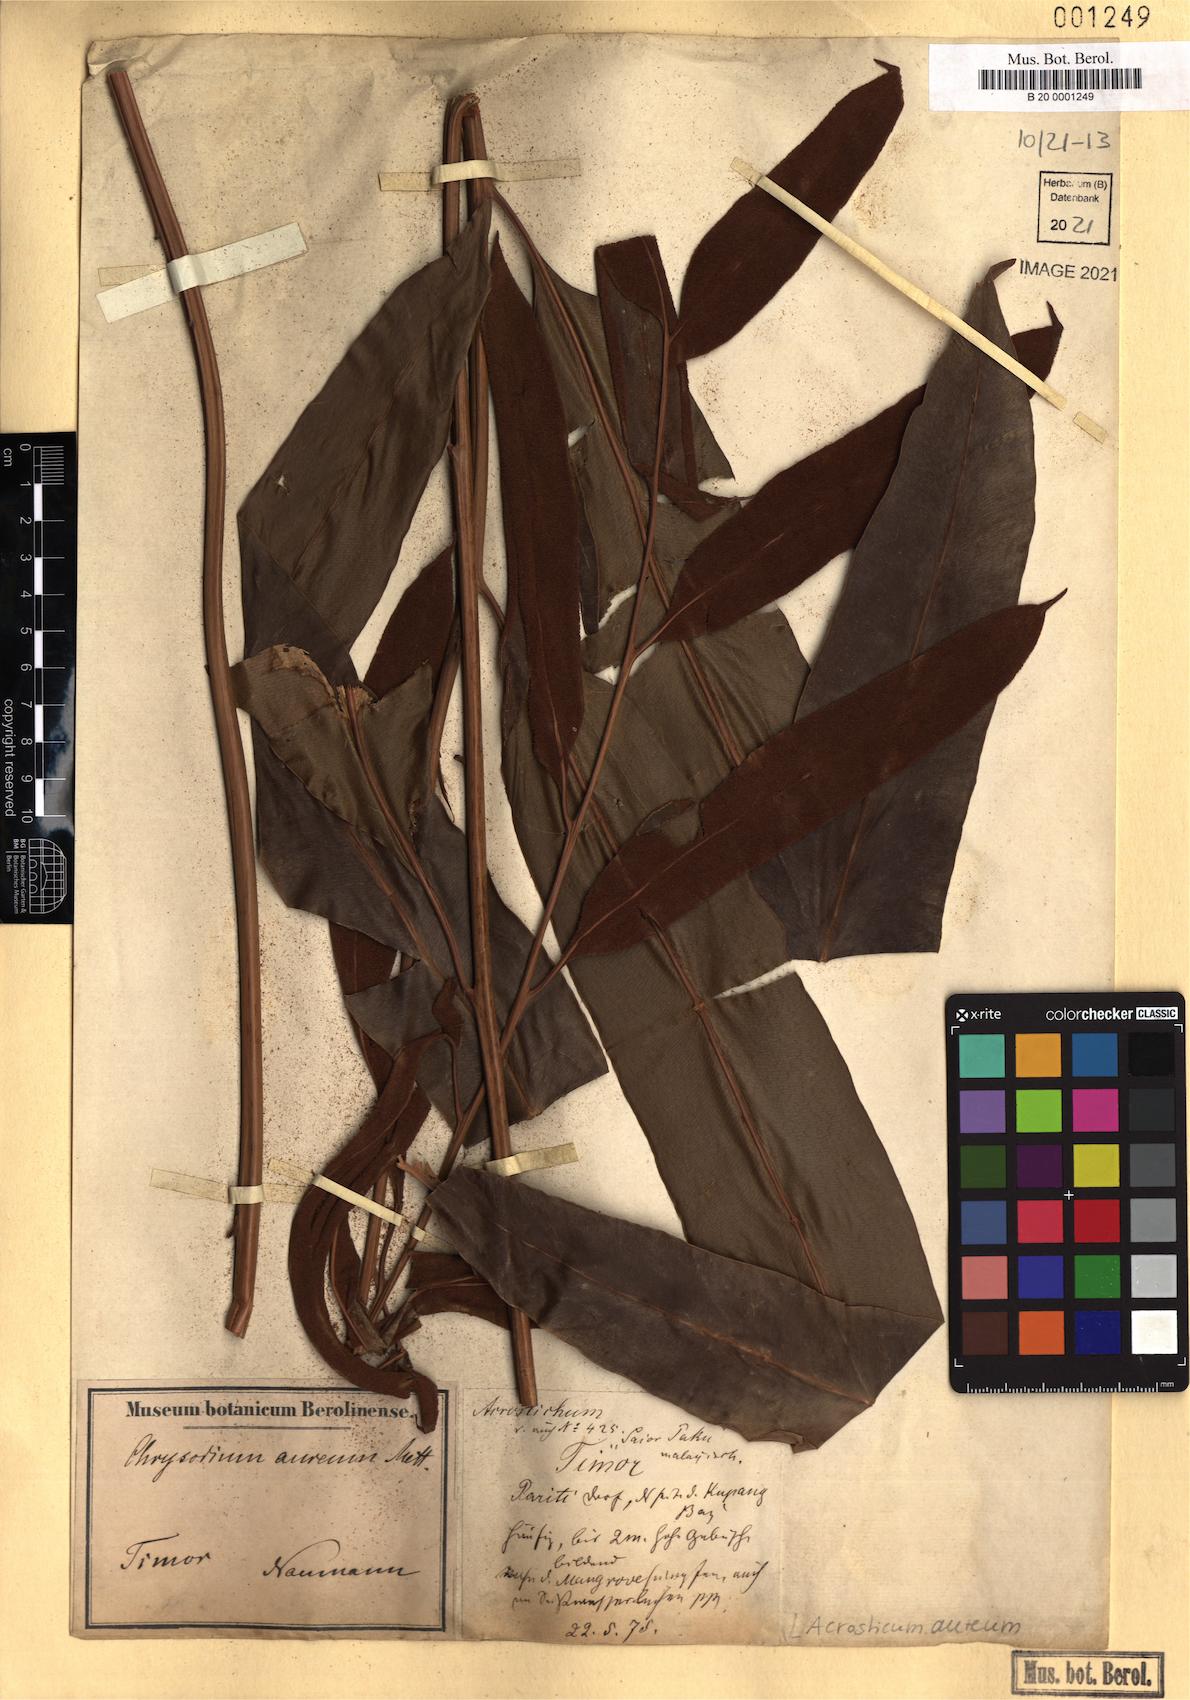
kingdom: Plantae
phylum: Tracheophyta
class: Polypodiopsida
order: Polypodiales
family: Pteridaceae
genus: Acrostichum
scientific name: Acrostichum aureum
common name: Leather fern
